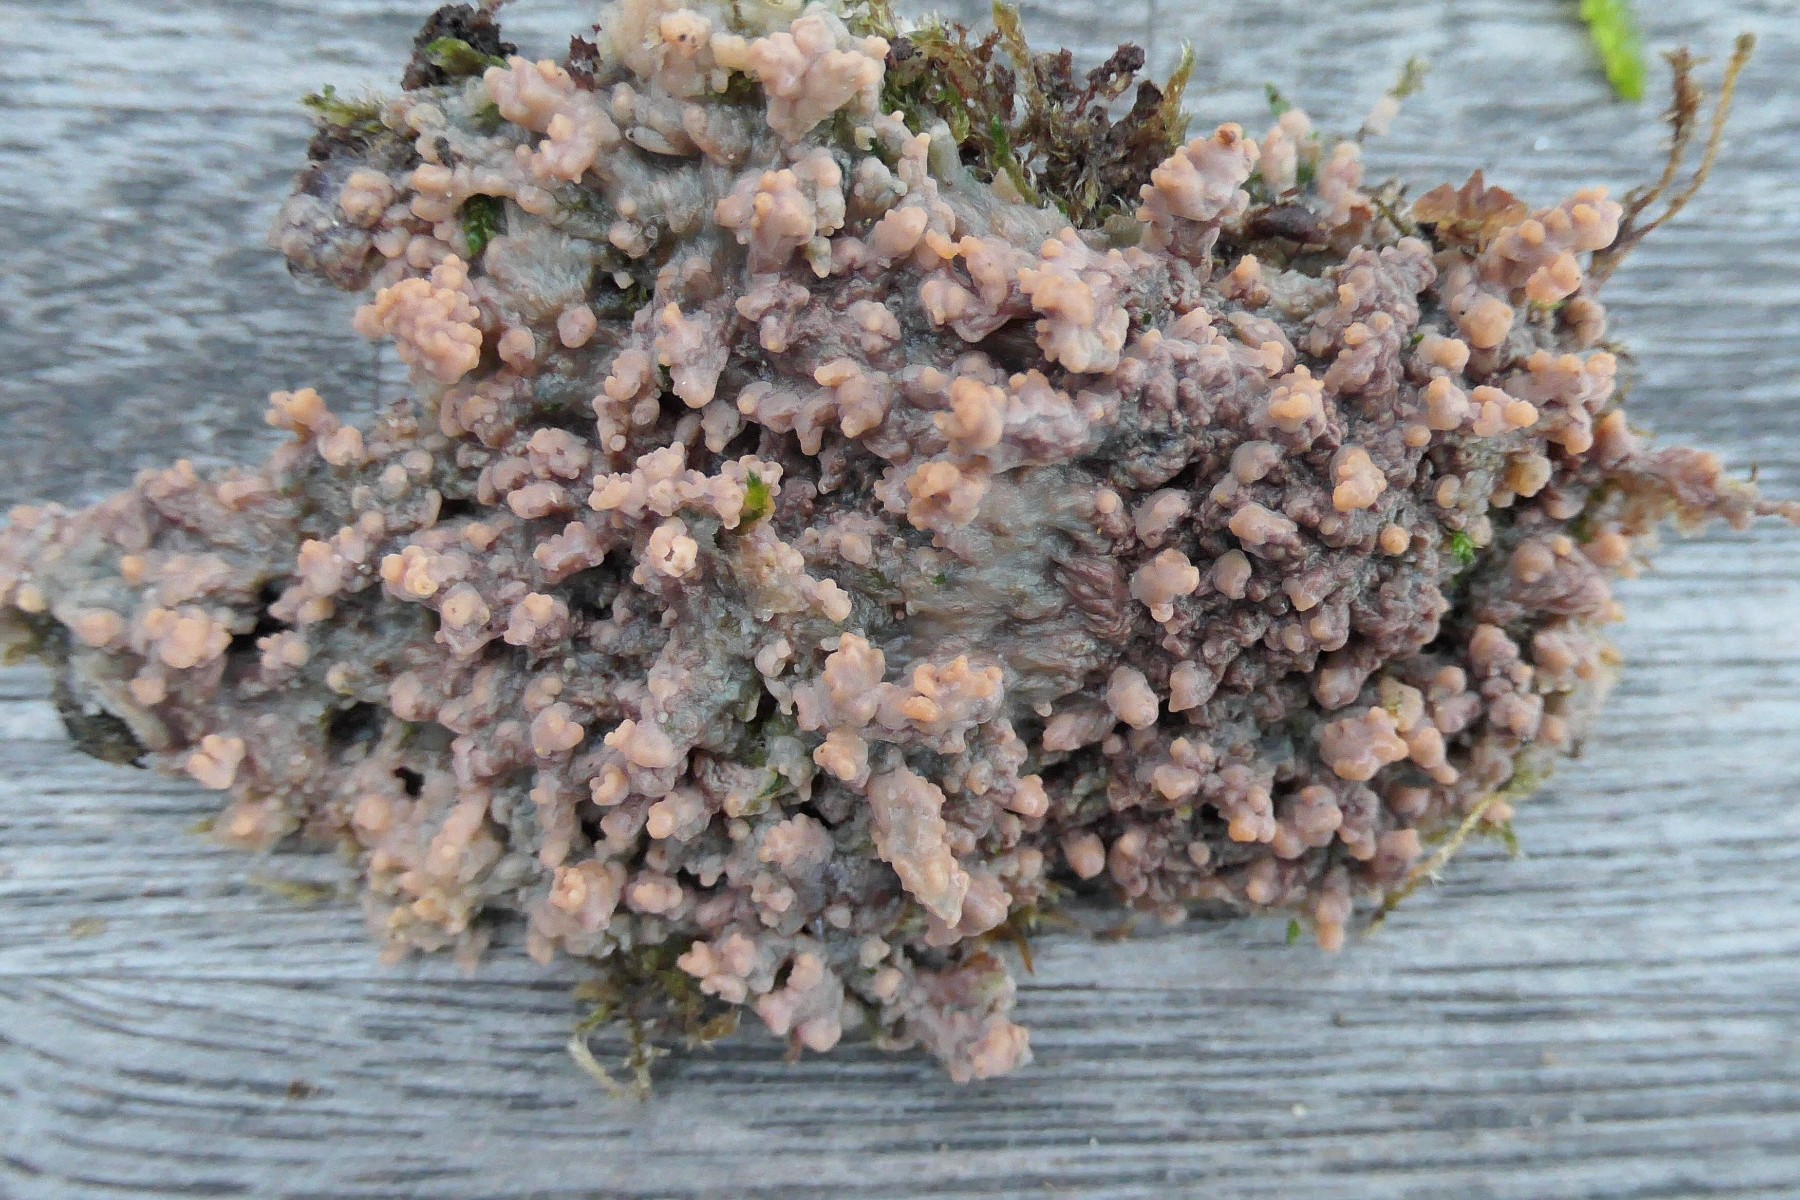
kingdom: Fungi
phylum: Basidiomycota
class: Agaricomycetes
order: Polyporales
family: Meruliaceae
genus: Phlebia
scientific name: Phlebia radiata
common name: stråle-åresvamp
